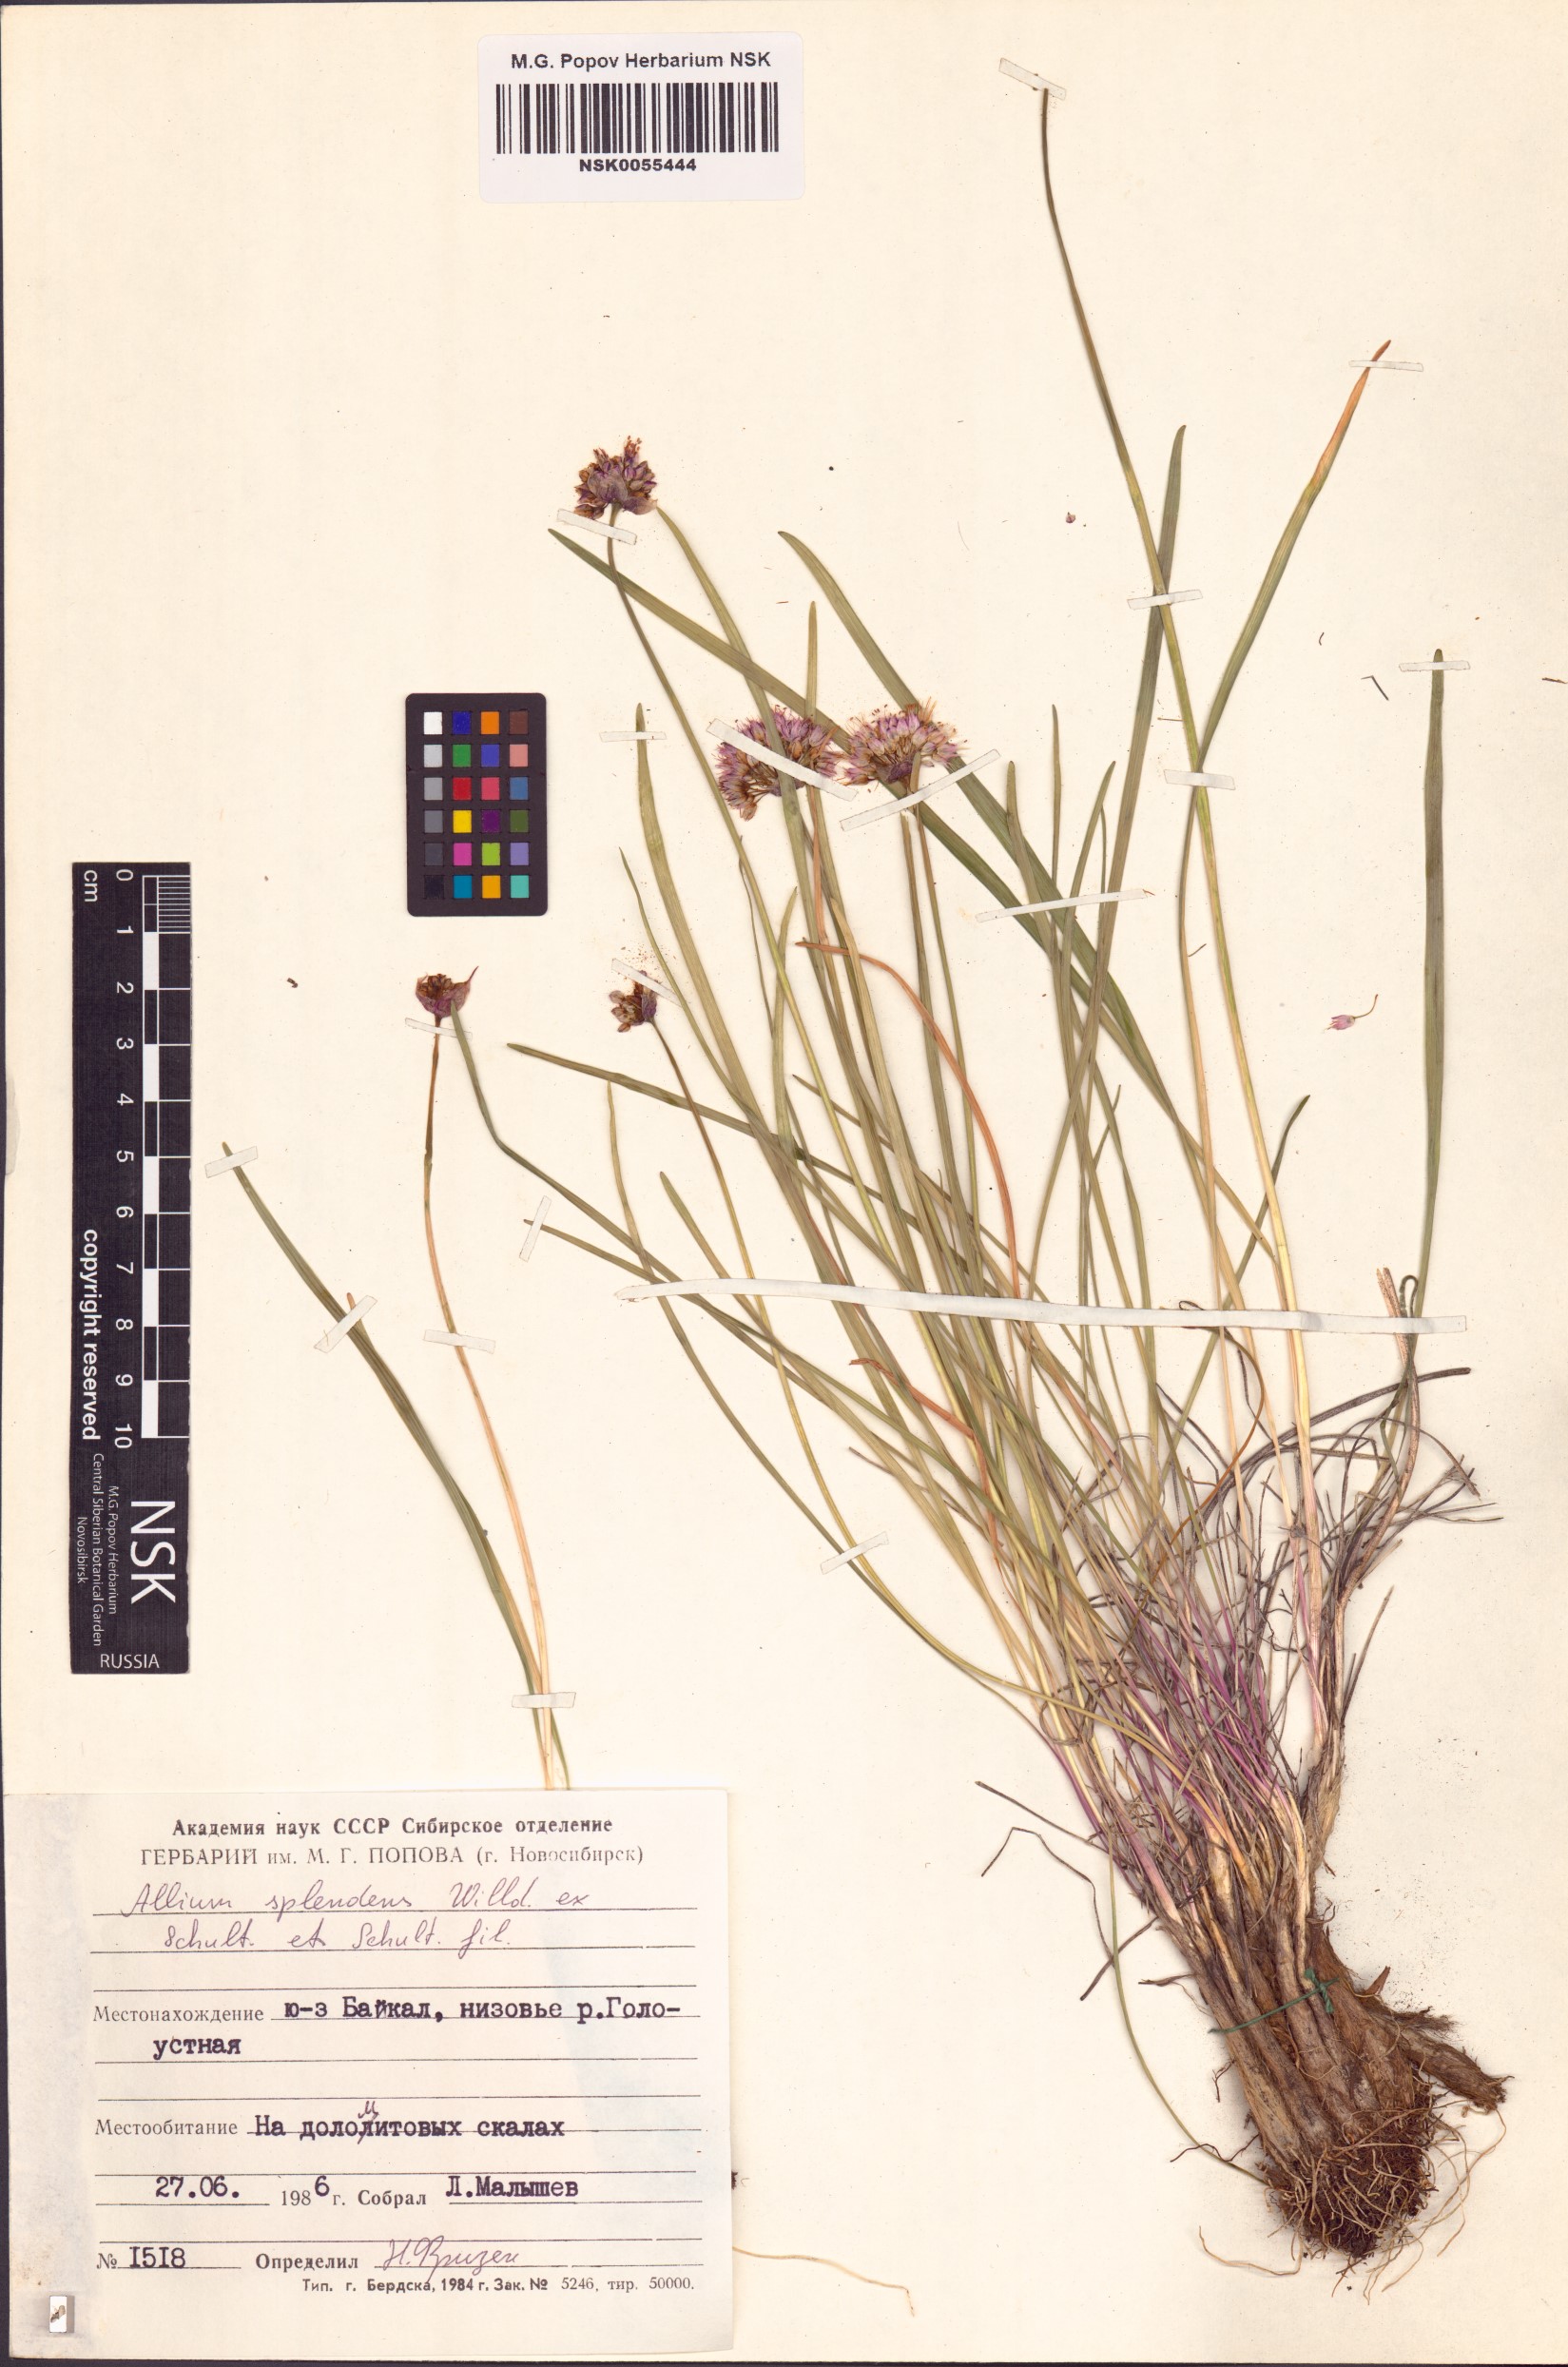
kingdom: Plantae
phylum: Tracheophyta
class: Liliopsida
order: Asparagales
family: Amaryllidaceae
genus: Allium
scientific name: Allium splendens
